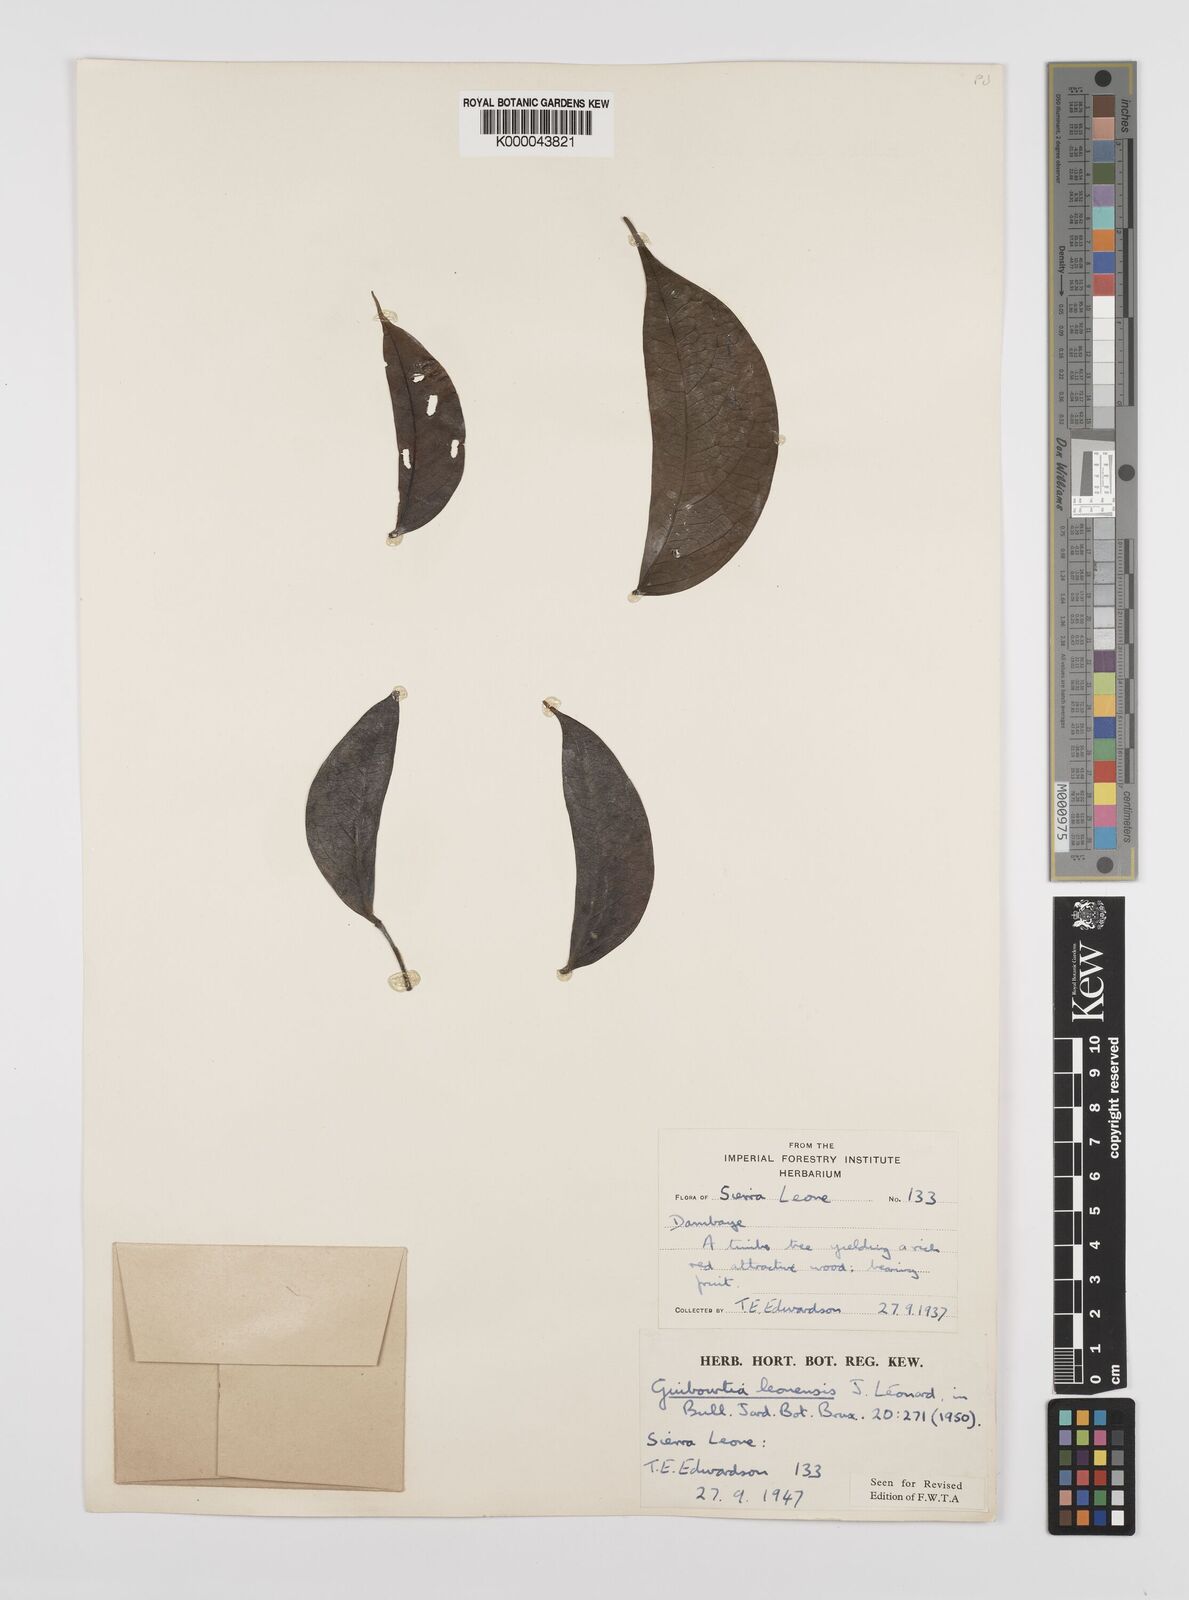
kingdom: Plantae
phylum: Tracheophyta
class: Magnoliopsida
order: Fabales
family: Fabaceae
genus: Guibourtia
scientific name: Guibourtia
